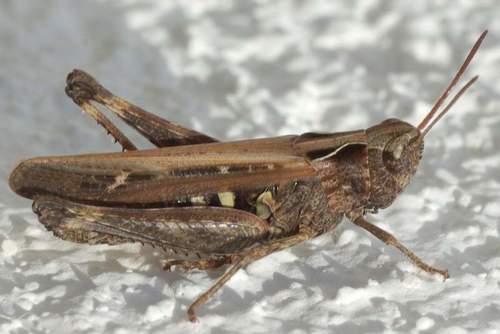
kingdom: Animalia
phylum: Arthropoda
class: Insecta
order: Orthoptera
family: Acrididae
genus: Omocestus
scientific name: Omocestus rufipes
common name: Woodland grasshopper
